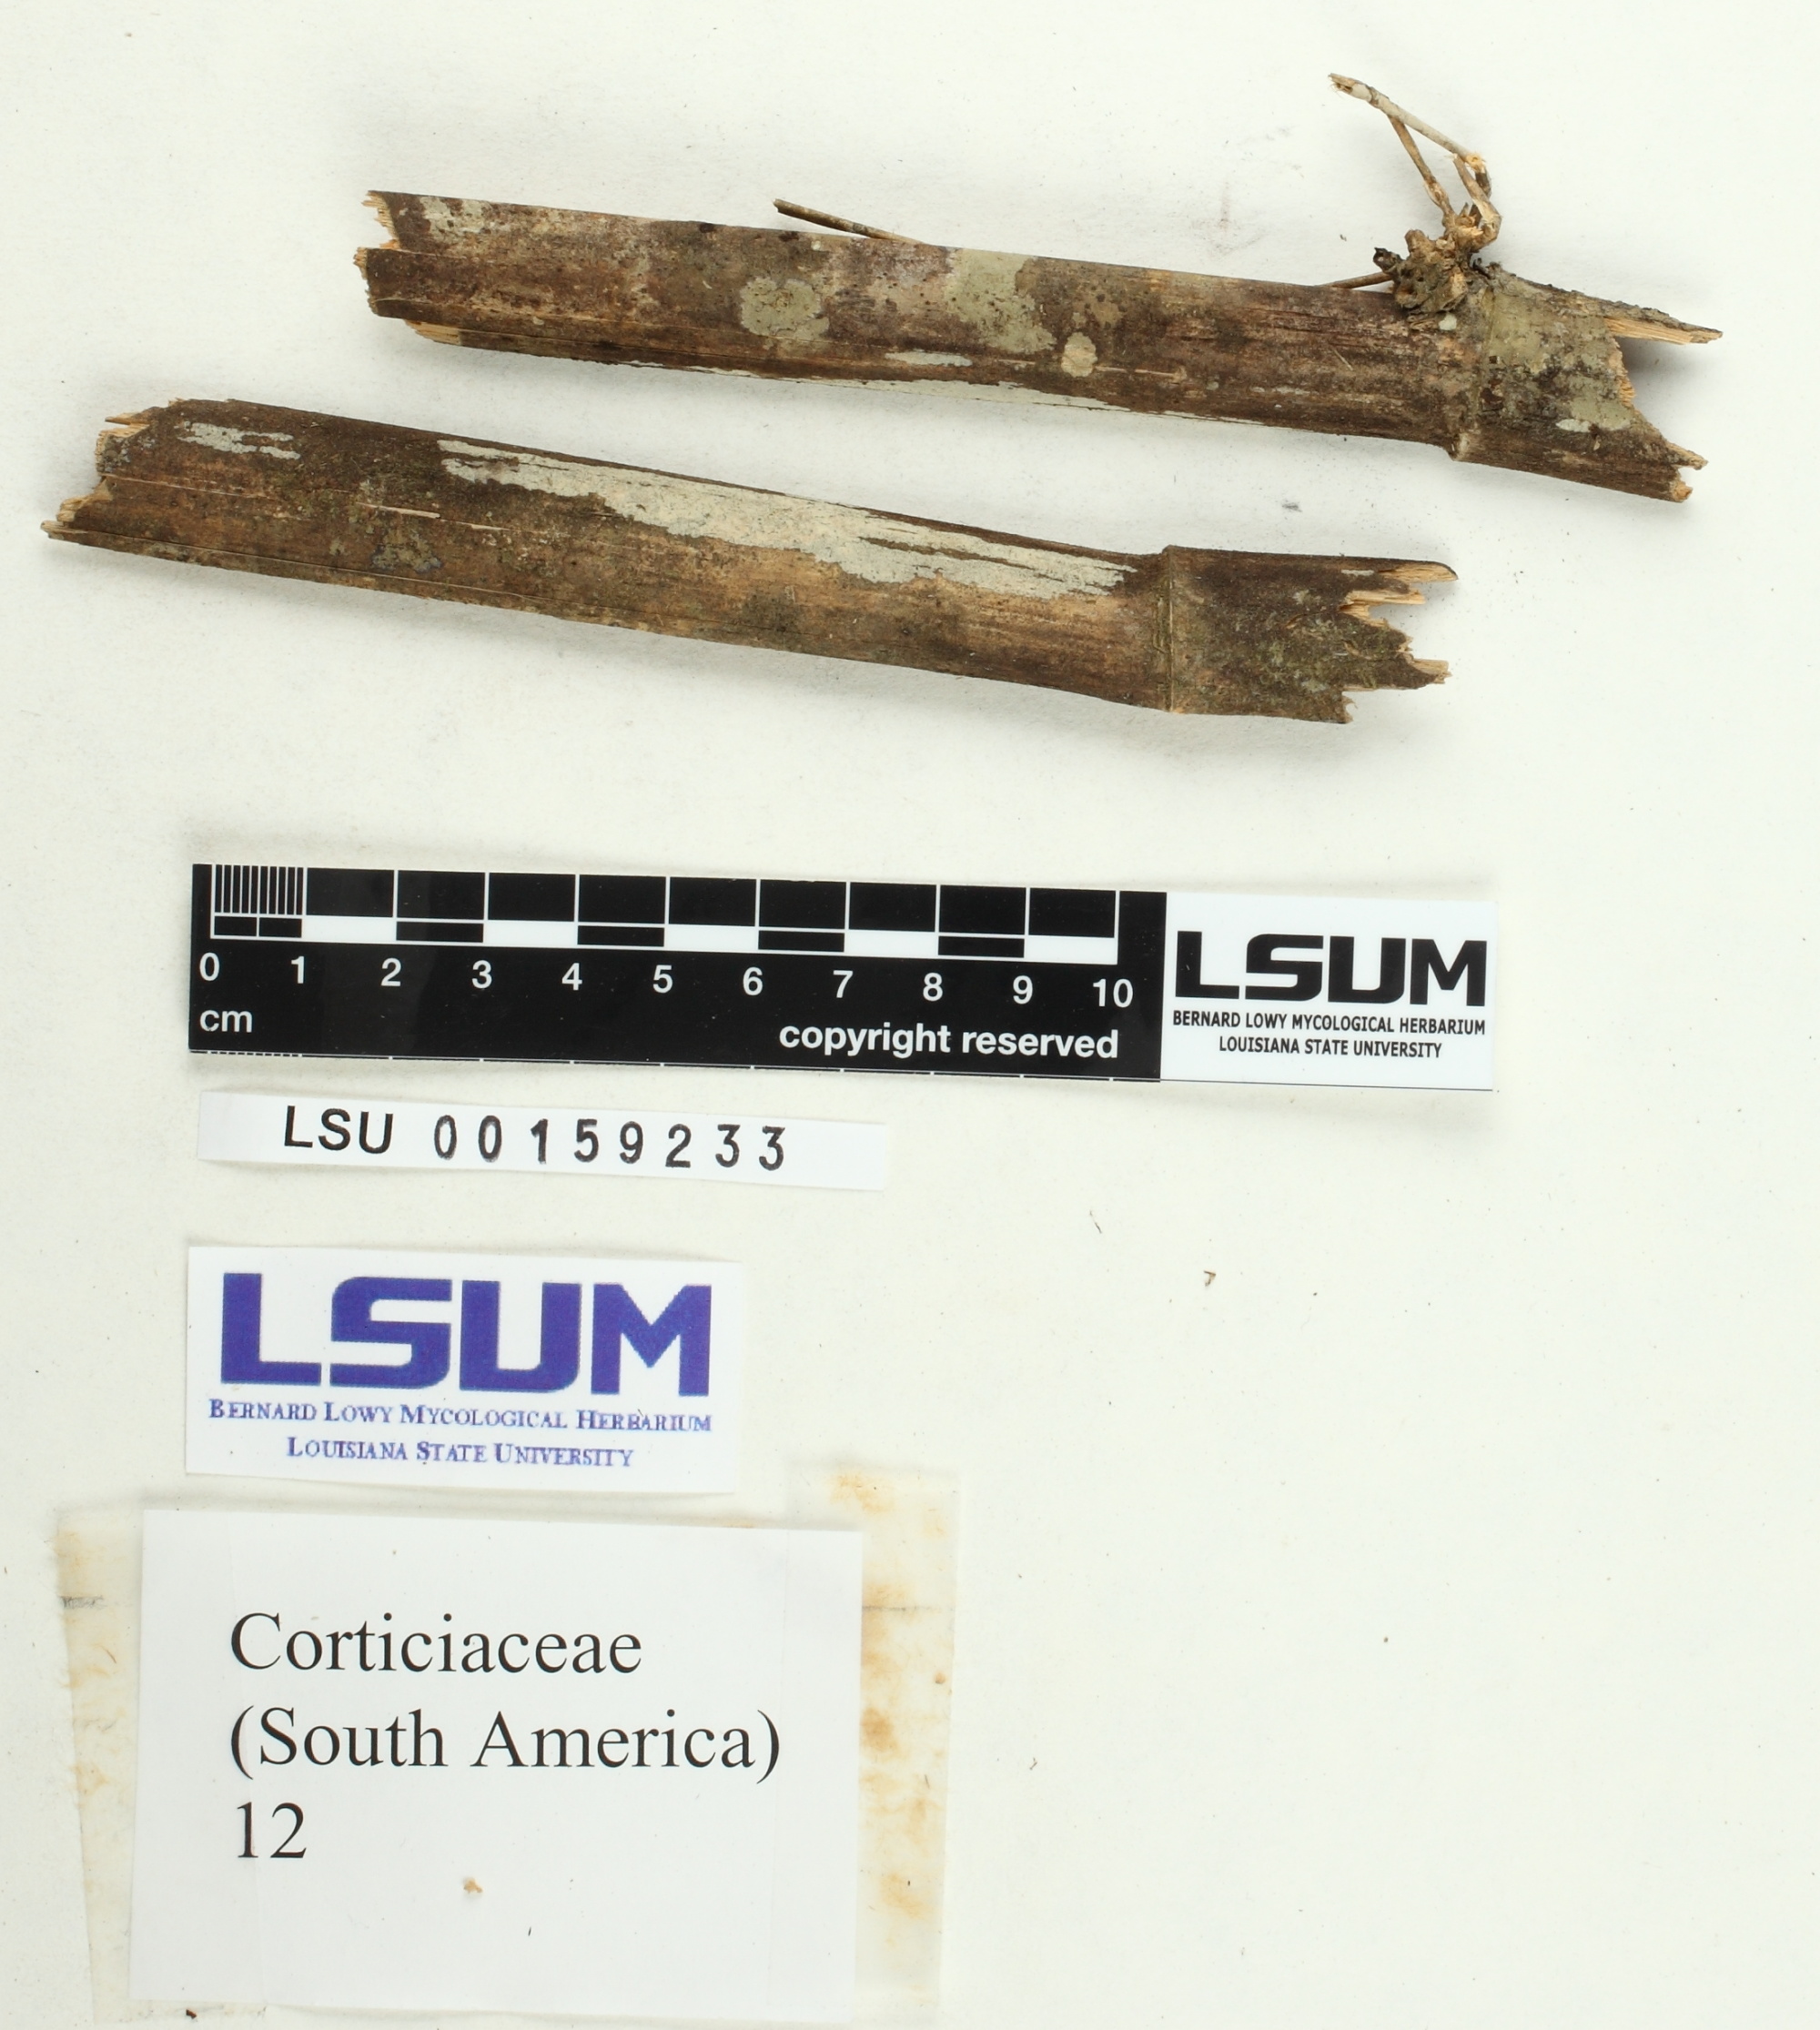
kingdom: Fungi
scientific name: Fungi
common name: Fungi
